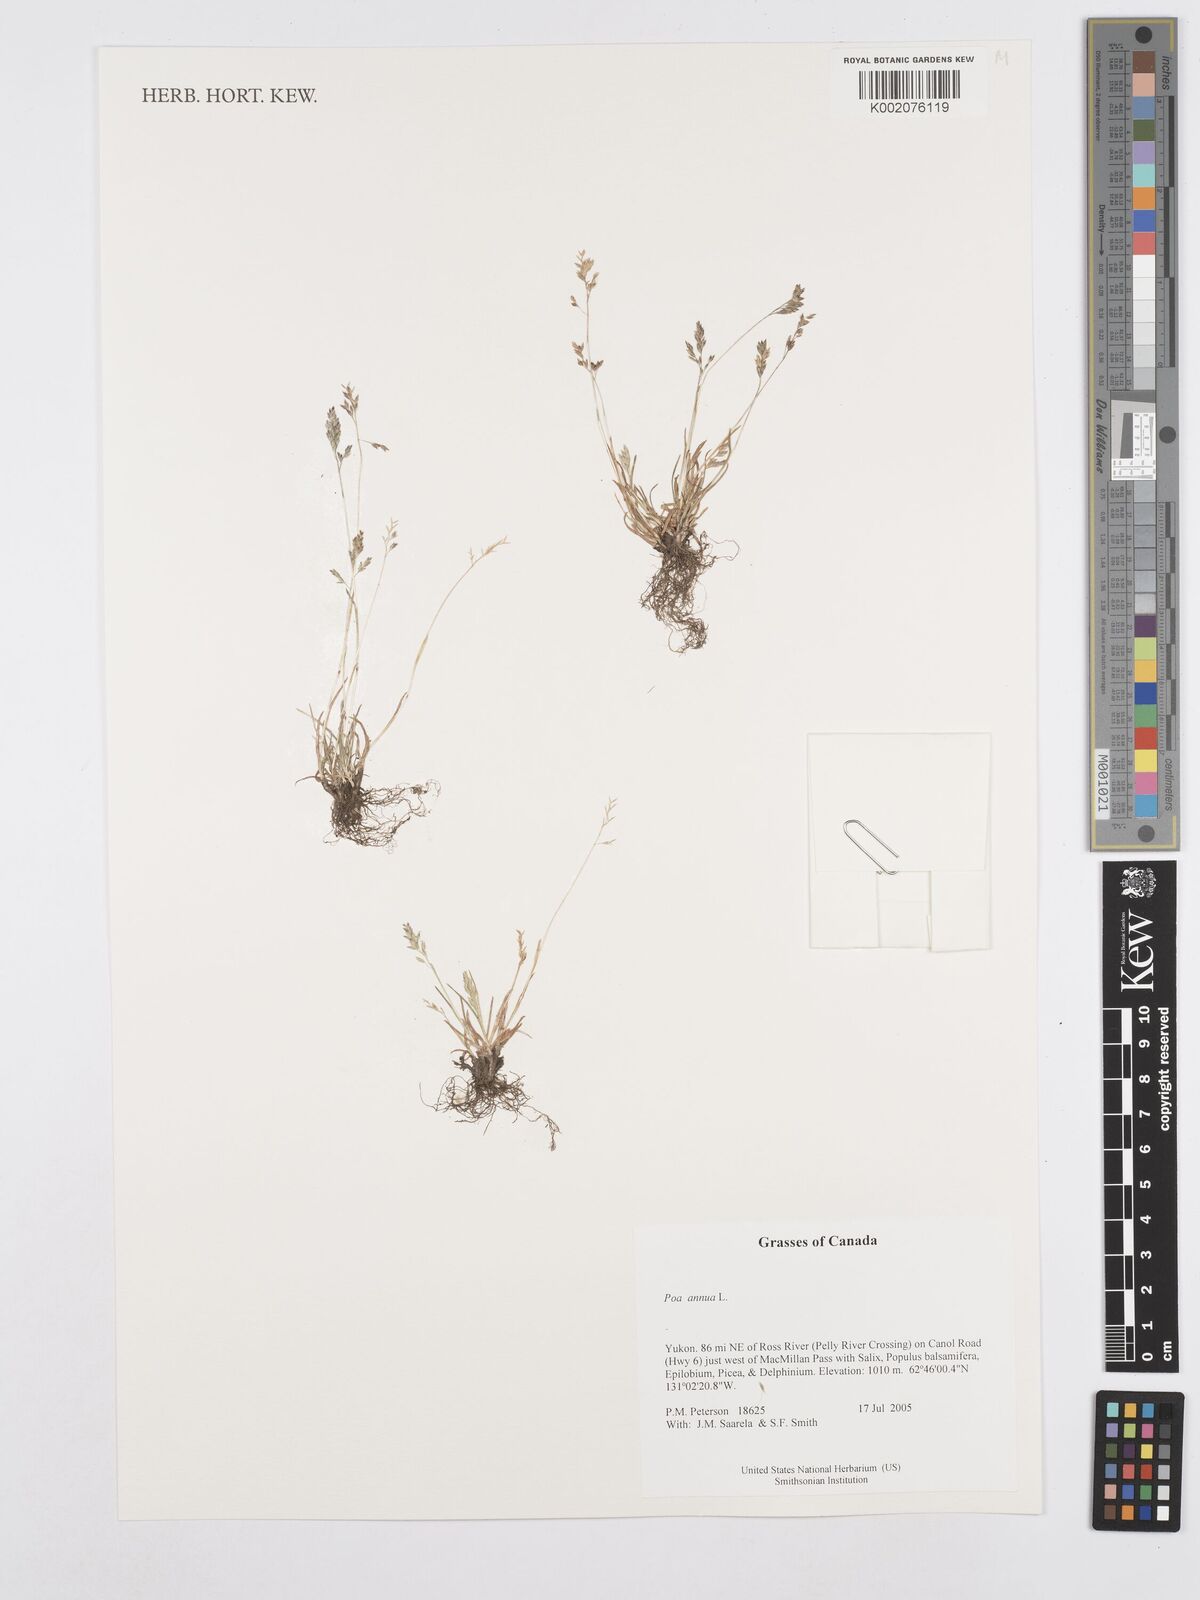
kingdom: Plantae
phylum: Tracheophyta
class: Liliopsida
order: Poales
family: Poaceae
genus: Poa
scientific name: Poa annua
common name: Annual bluegrass
